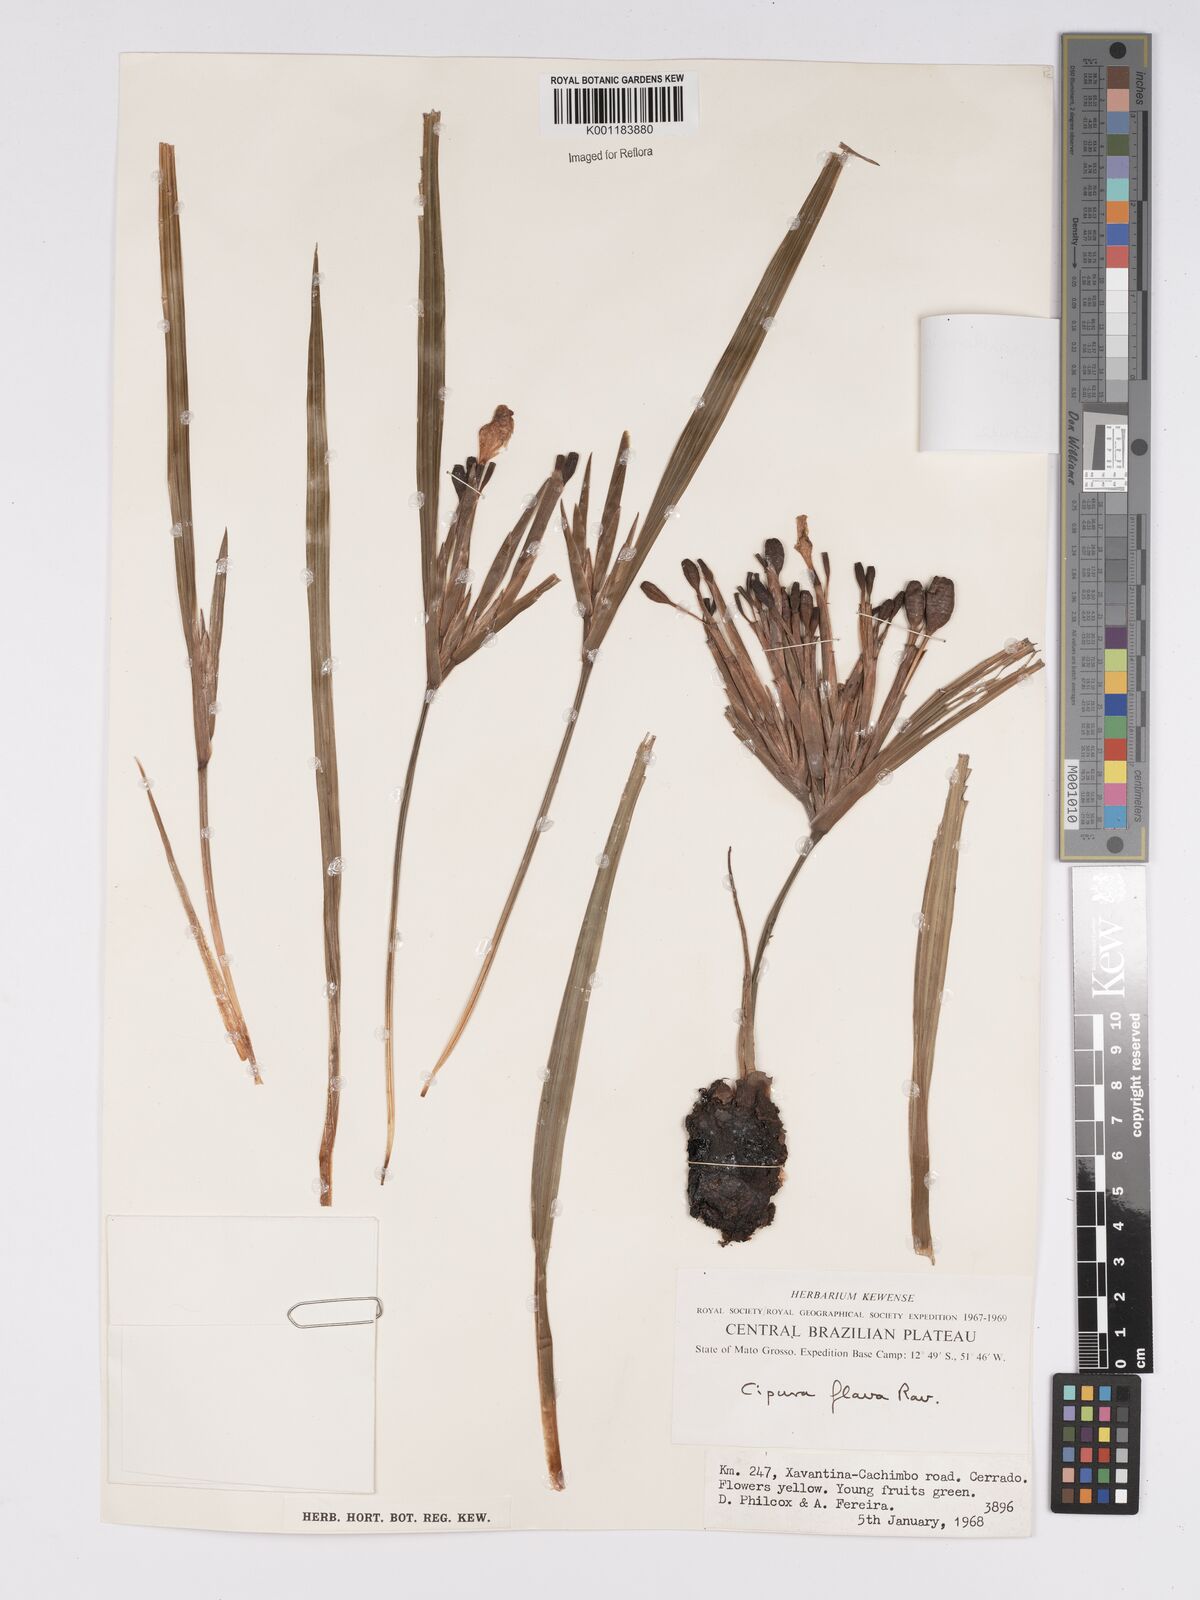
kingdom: Plantae
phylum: Tracheophyta
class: Liliopsida
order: Asparagales
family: Iridaceae
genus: Cipura
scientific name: Cipura xanthomelas
